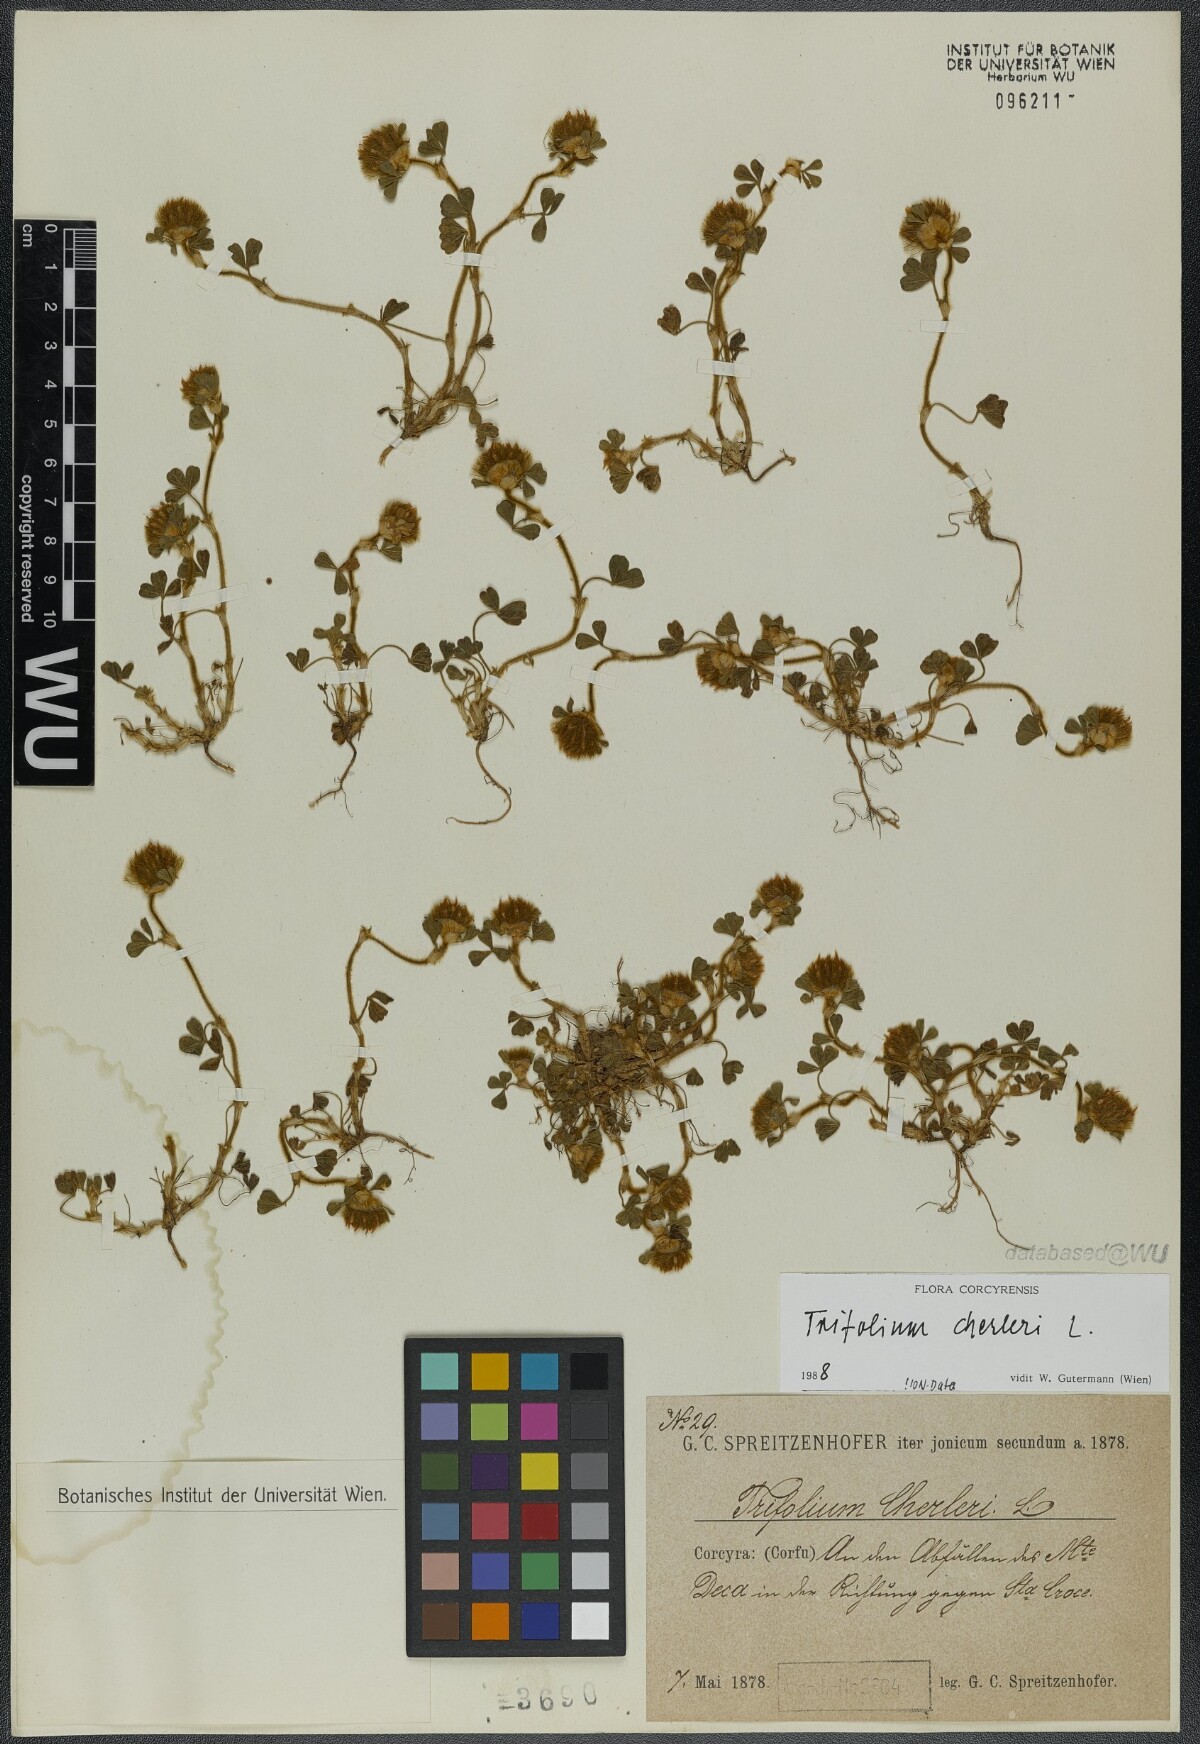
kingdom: Plantae
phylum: Tracheophyta
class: Magnoliopsida
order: Fabales
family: Fabaceae
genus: Trifolium
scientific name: Trifolium cherleri
